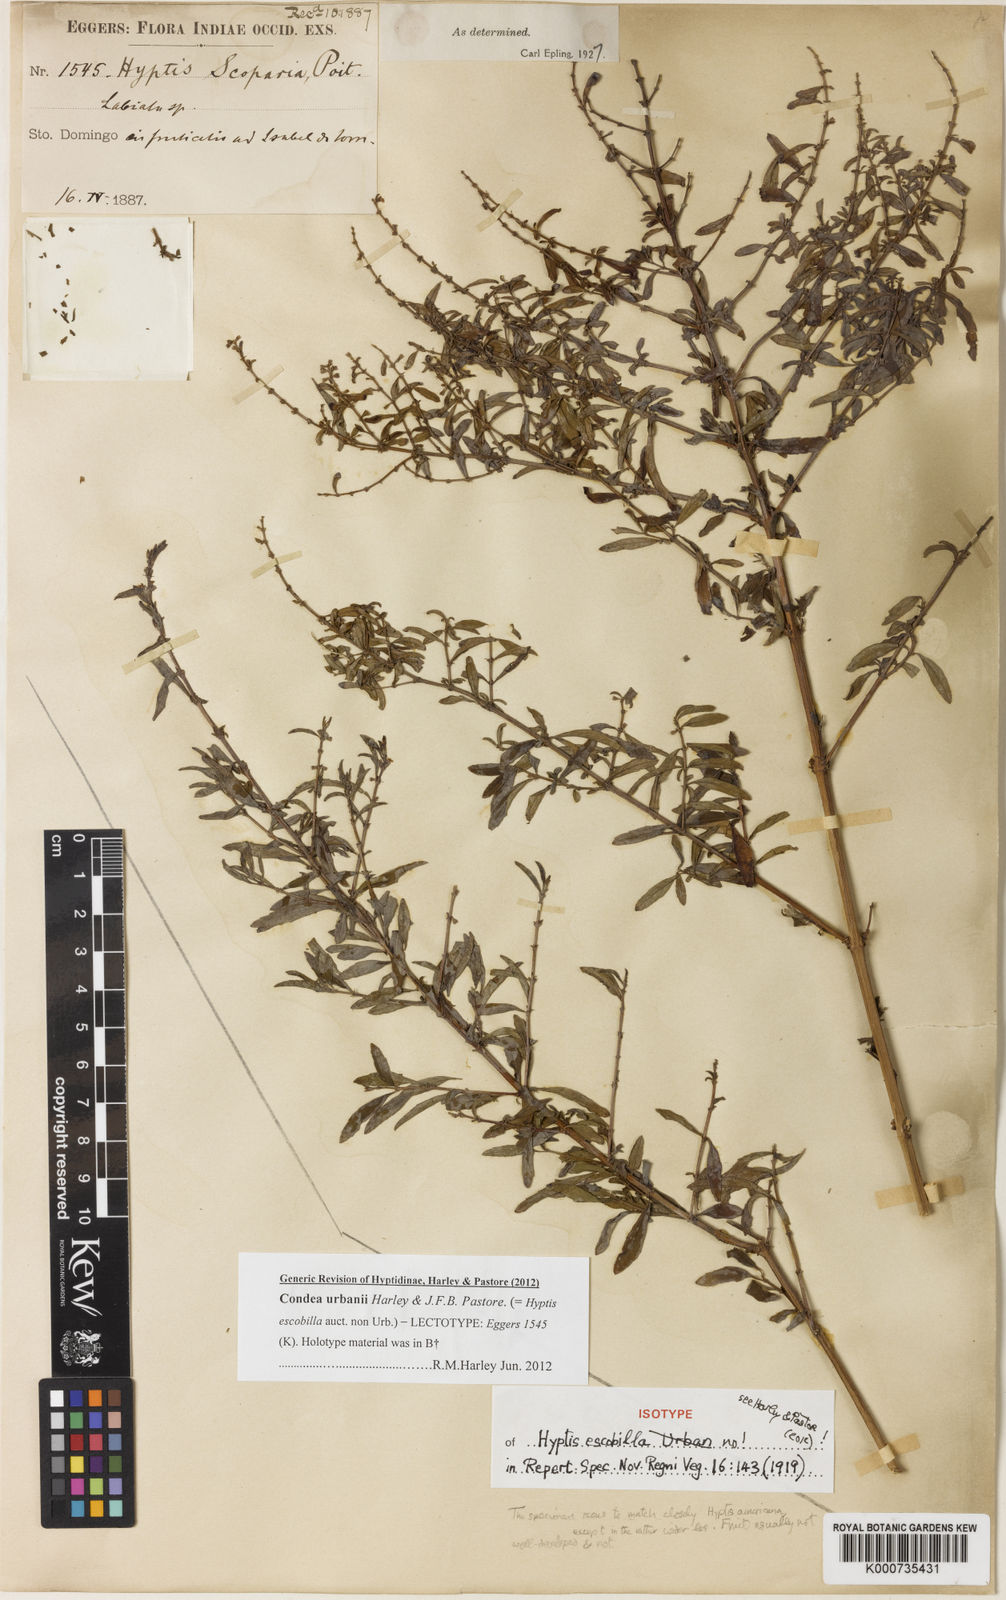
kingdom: Plantae
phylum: Tracheophyta
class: Magnoliopsida
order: Lamiales
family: Lamiaceae
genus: Condea
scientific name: Condea urbanii
